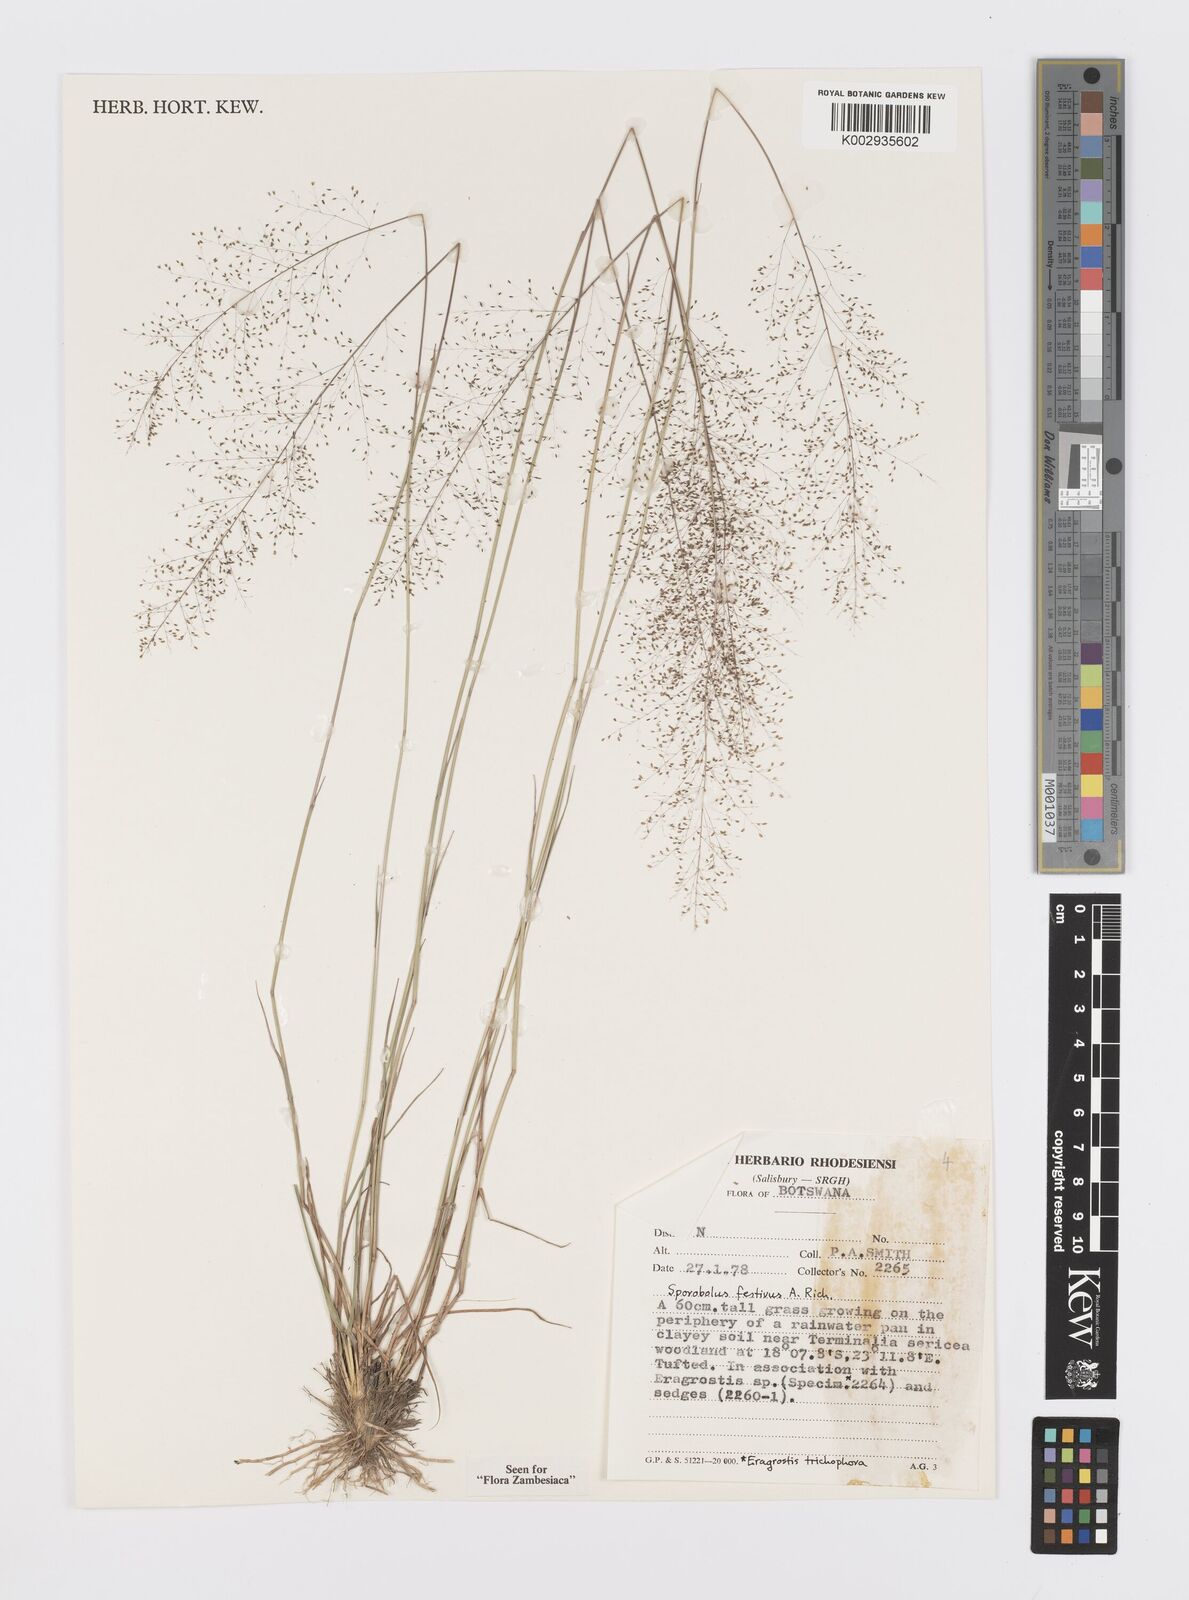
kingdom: Plantae
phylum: Tracheophyta
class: Liliopsida
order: Poales
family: Poaceae
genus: Sporobolus
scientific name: Sporobolus festivus
